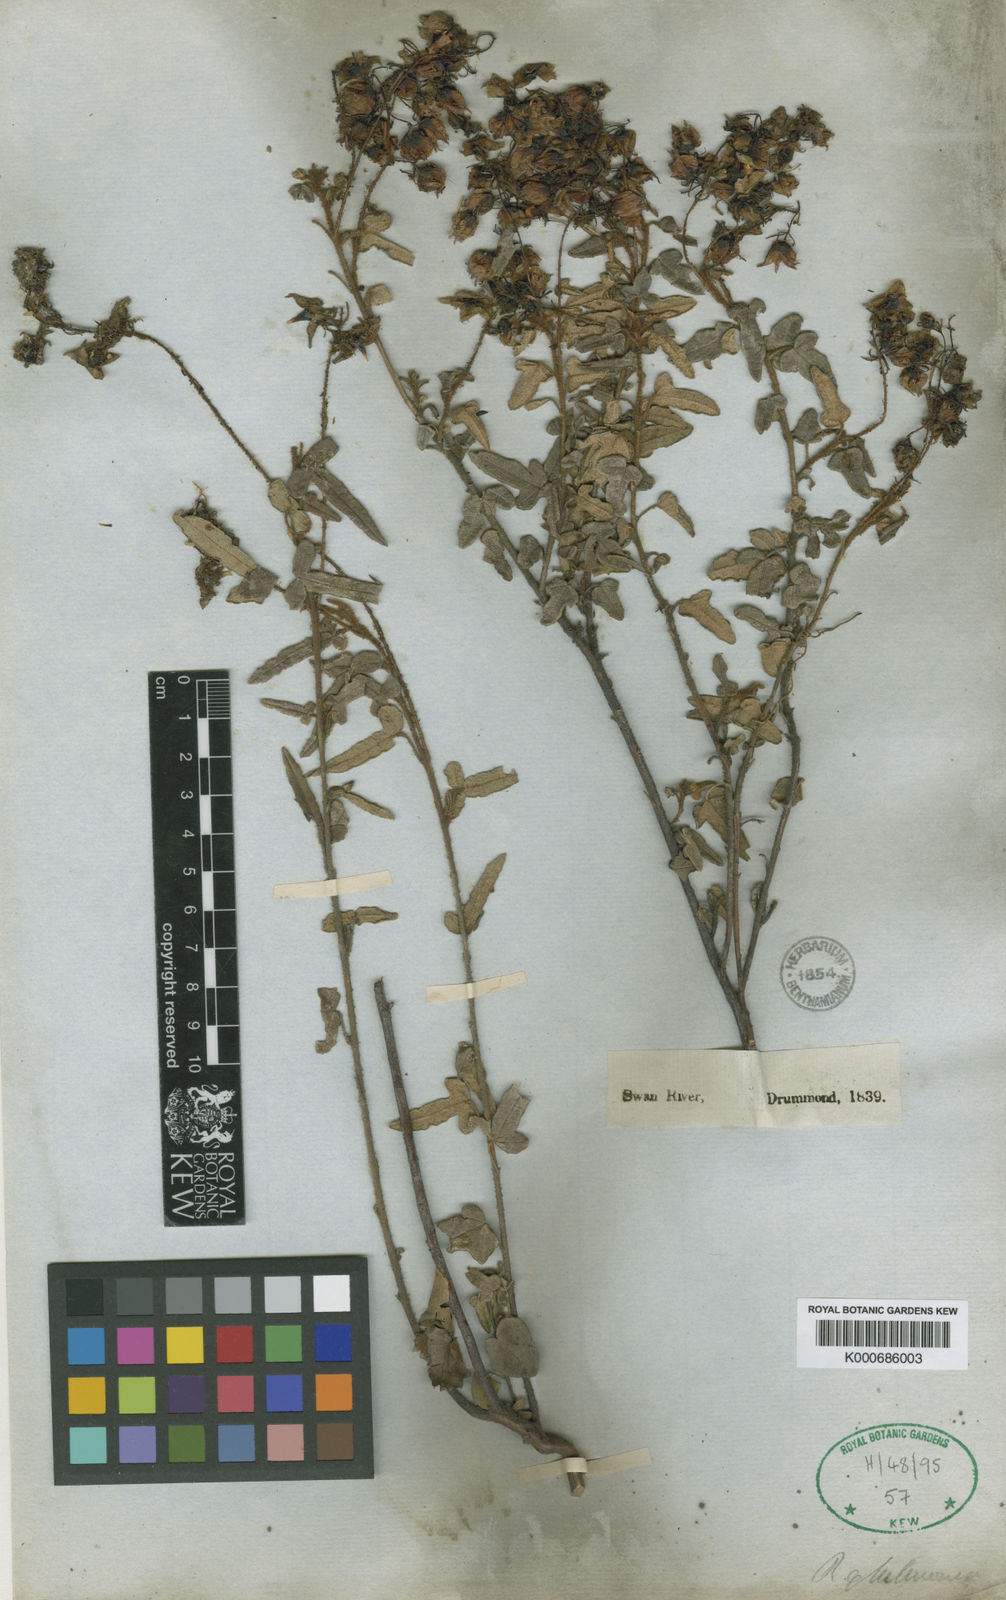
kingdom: Plantae
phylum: Tracheophyta
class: Magnoliopsida
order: Malvales
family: Malvaceae
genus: Lasiopetalum
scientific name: Lasiopetalum glutinosum
